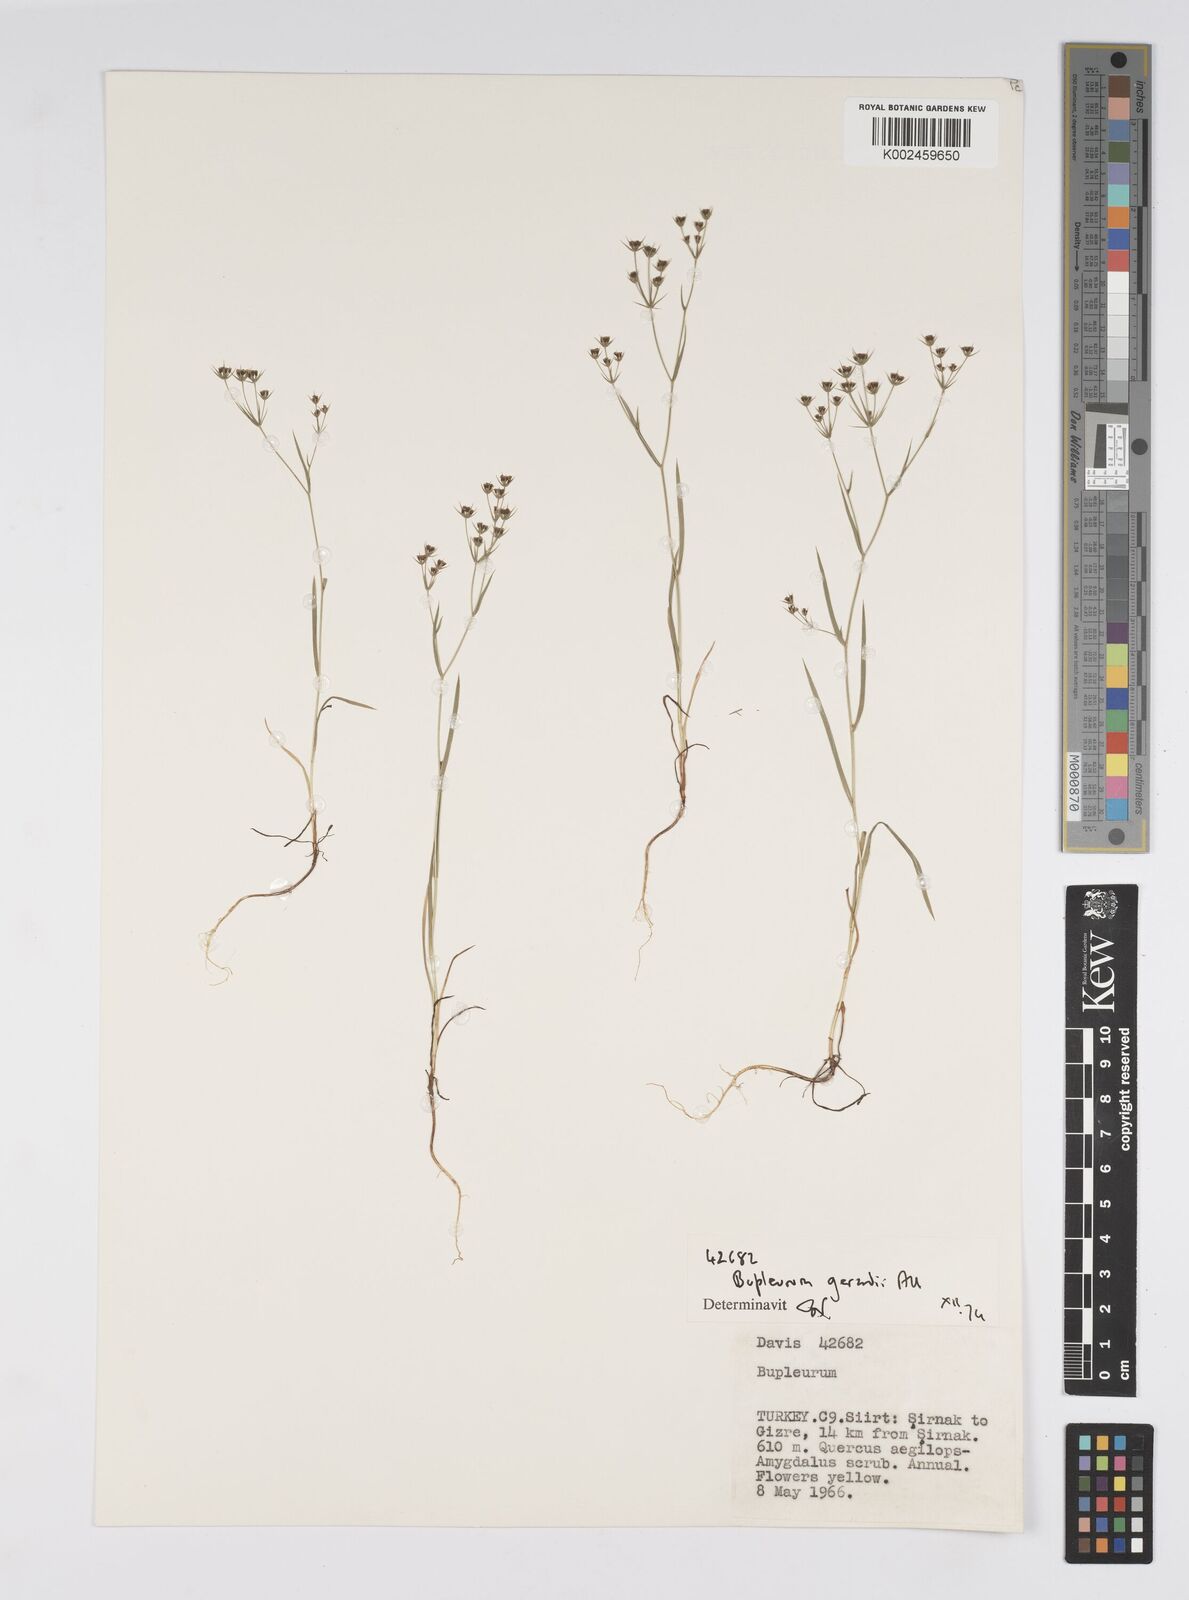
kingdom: Plantae
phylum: Tracheophyta
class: Magnoliopsida
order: Apiales
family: Apiaceae
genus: Bupleurum
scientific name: Bupleurum gerardi
